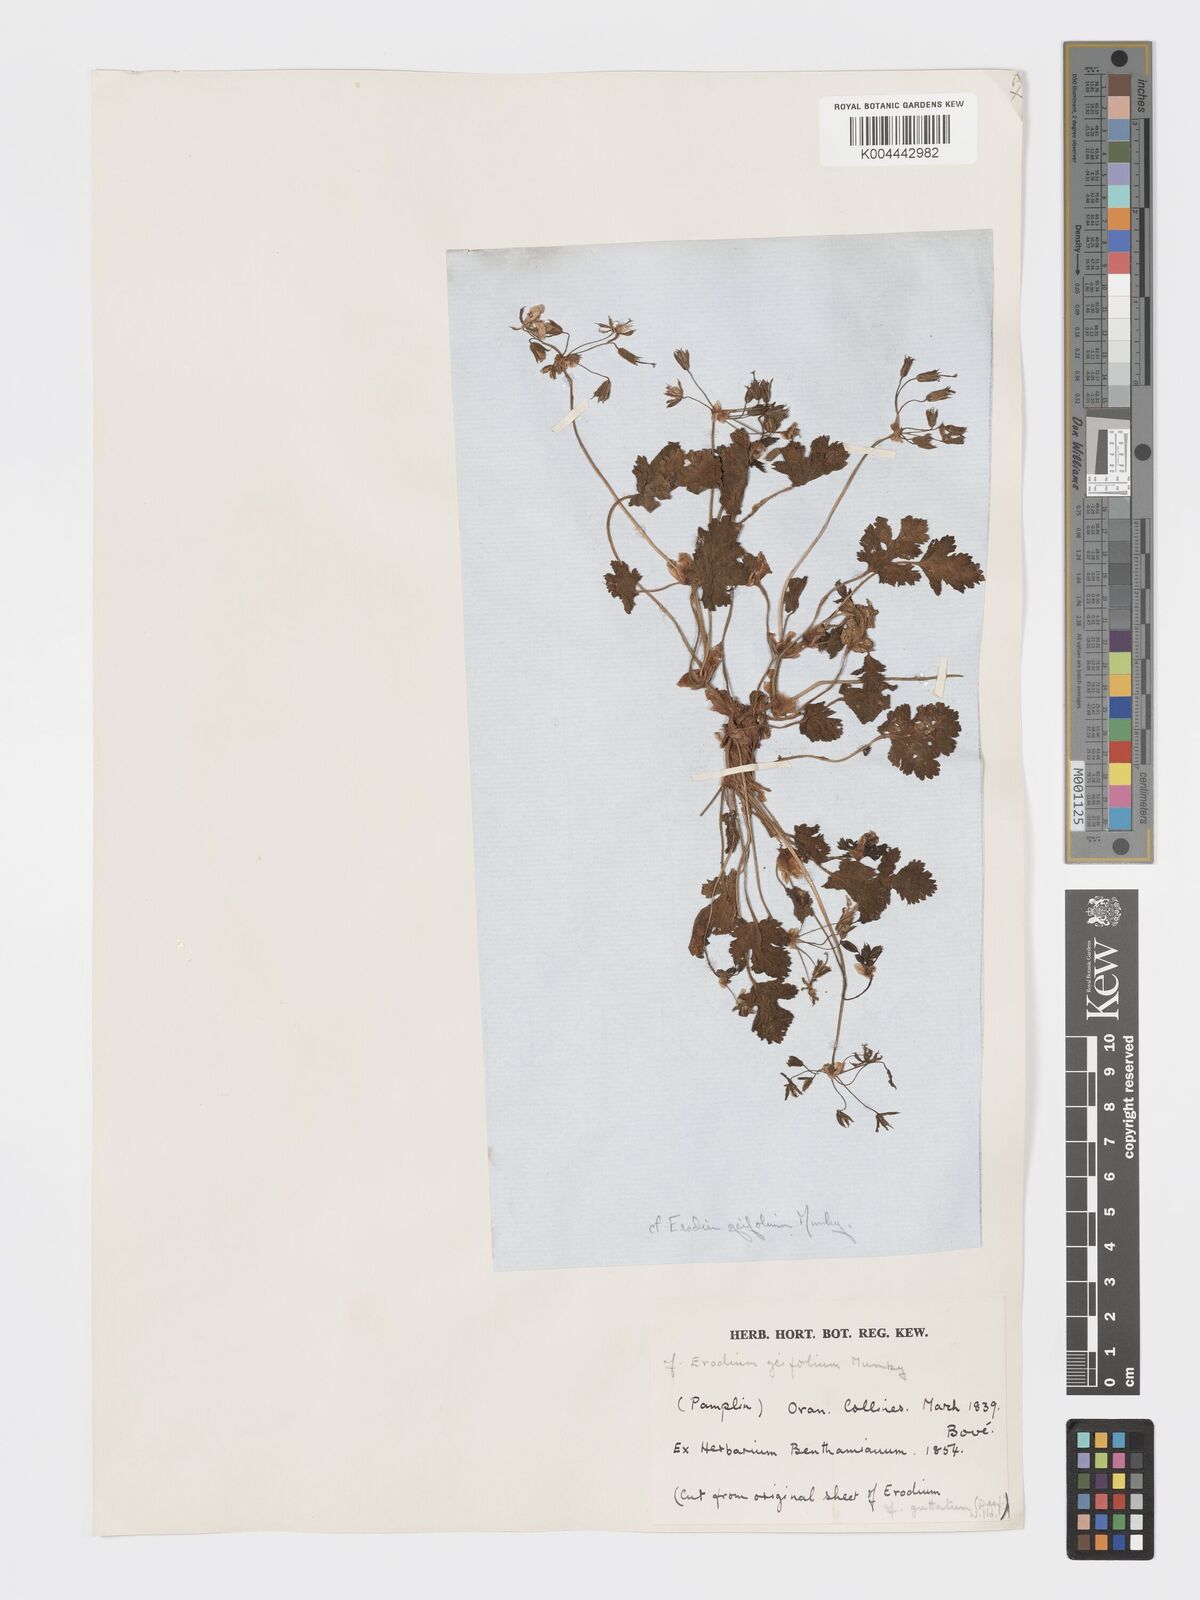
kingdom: Plantae
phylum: Tracheophyta
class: Magnoliopsida
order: Geraniales
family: Geraniaceae
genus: Erodium
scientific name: Erodium munbyanum
